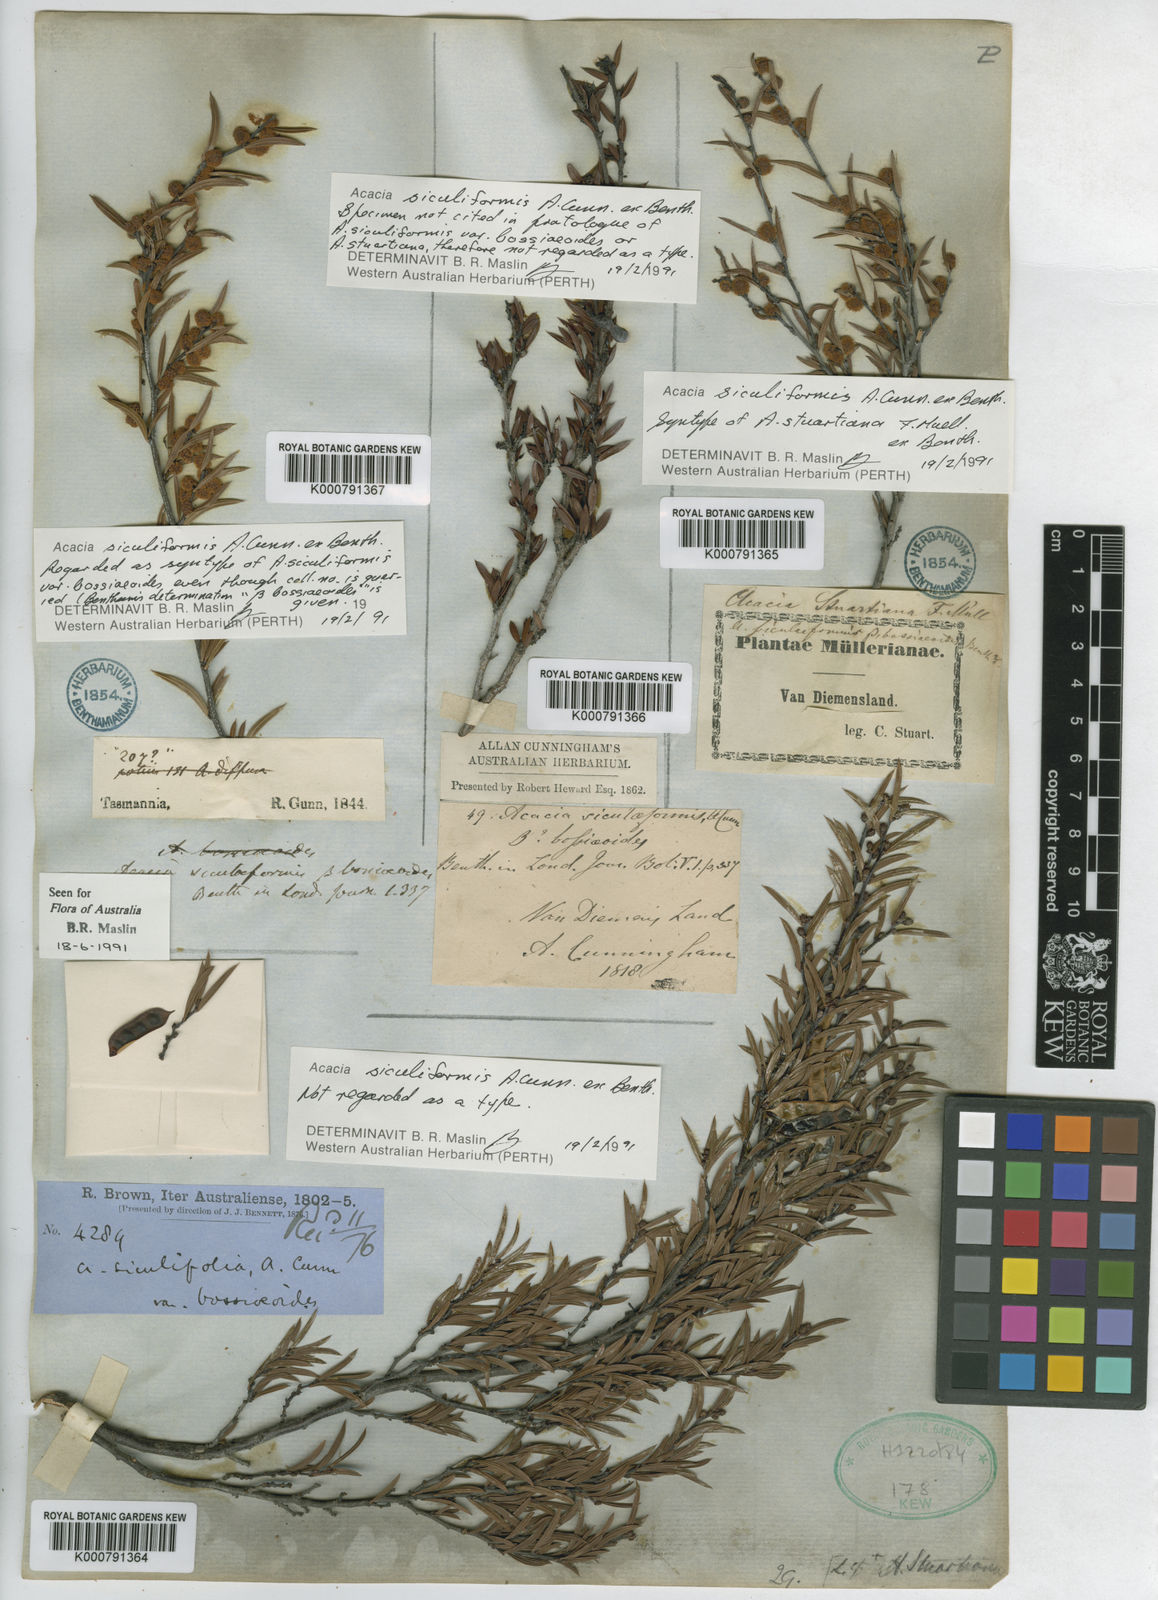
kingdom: Plantae
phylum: Tracheophyta
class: Magnoliopsida
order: Fabales
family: Fabaceae
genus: Acacia
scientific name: Acacia
